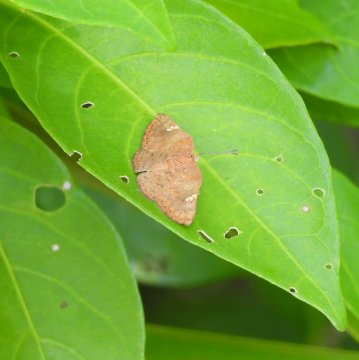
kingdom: Animalia
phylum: Arthropoda
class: Insecta
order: Lepidoptera
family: Lycaenidae
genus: Emesis
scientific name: Emesis lucinda
